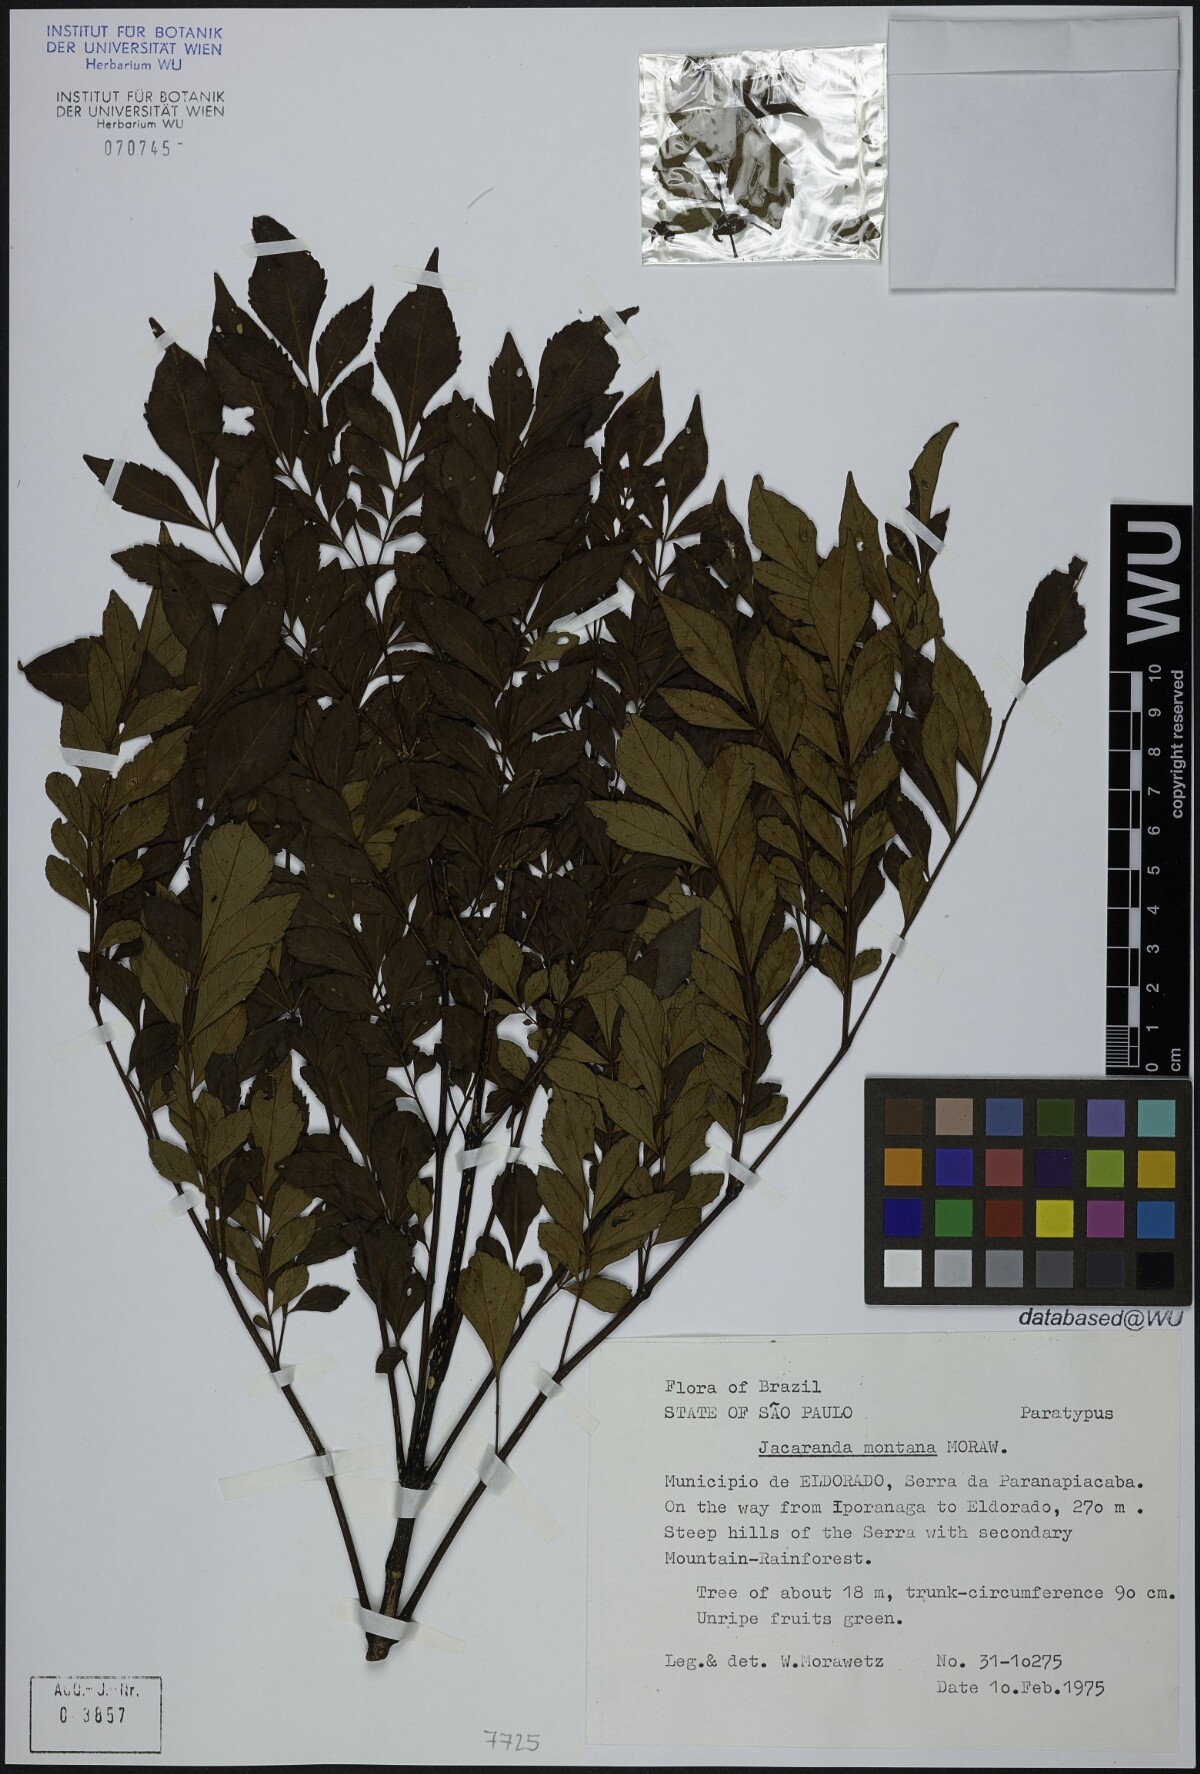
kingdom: Plantae
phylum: Tracheophyta
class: Magnoliopsida
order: Lamiales
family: Bignoniaceae
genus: Jacaranda
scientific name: Jacaranda montana
